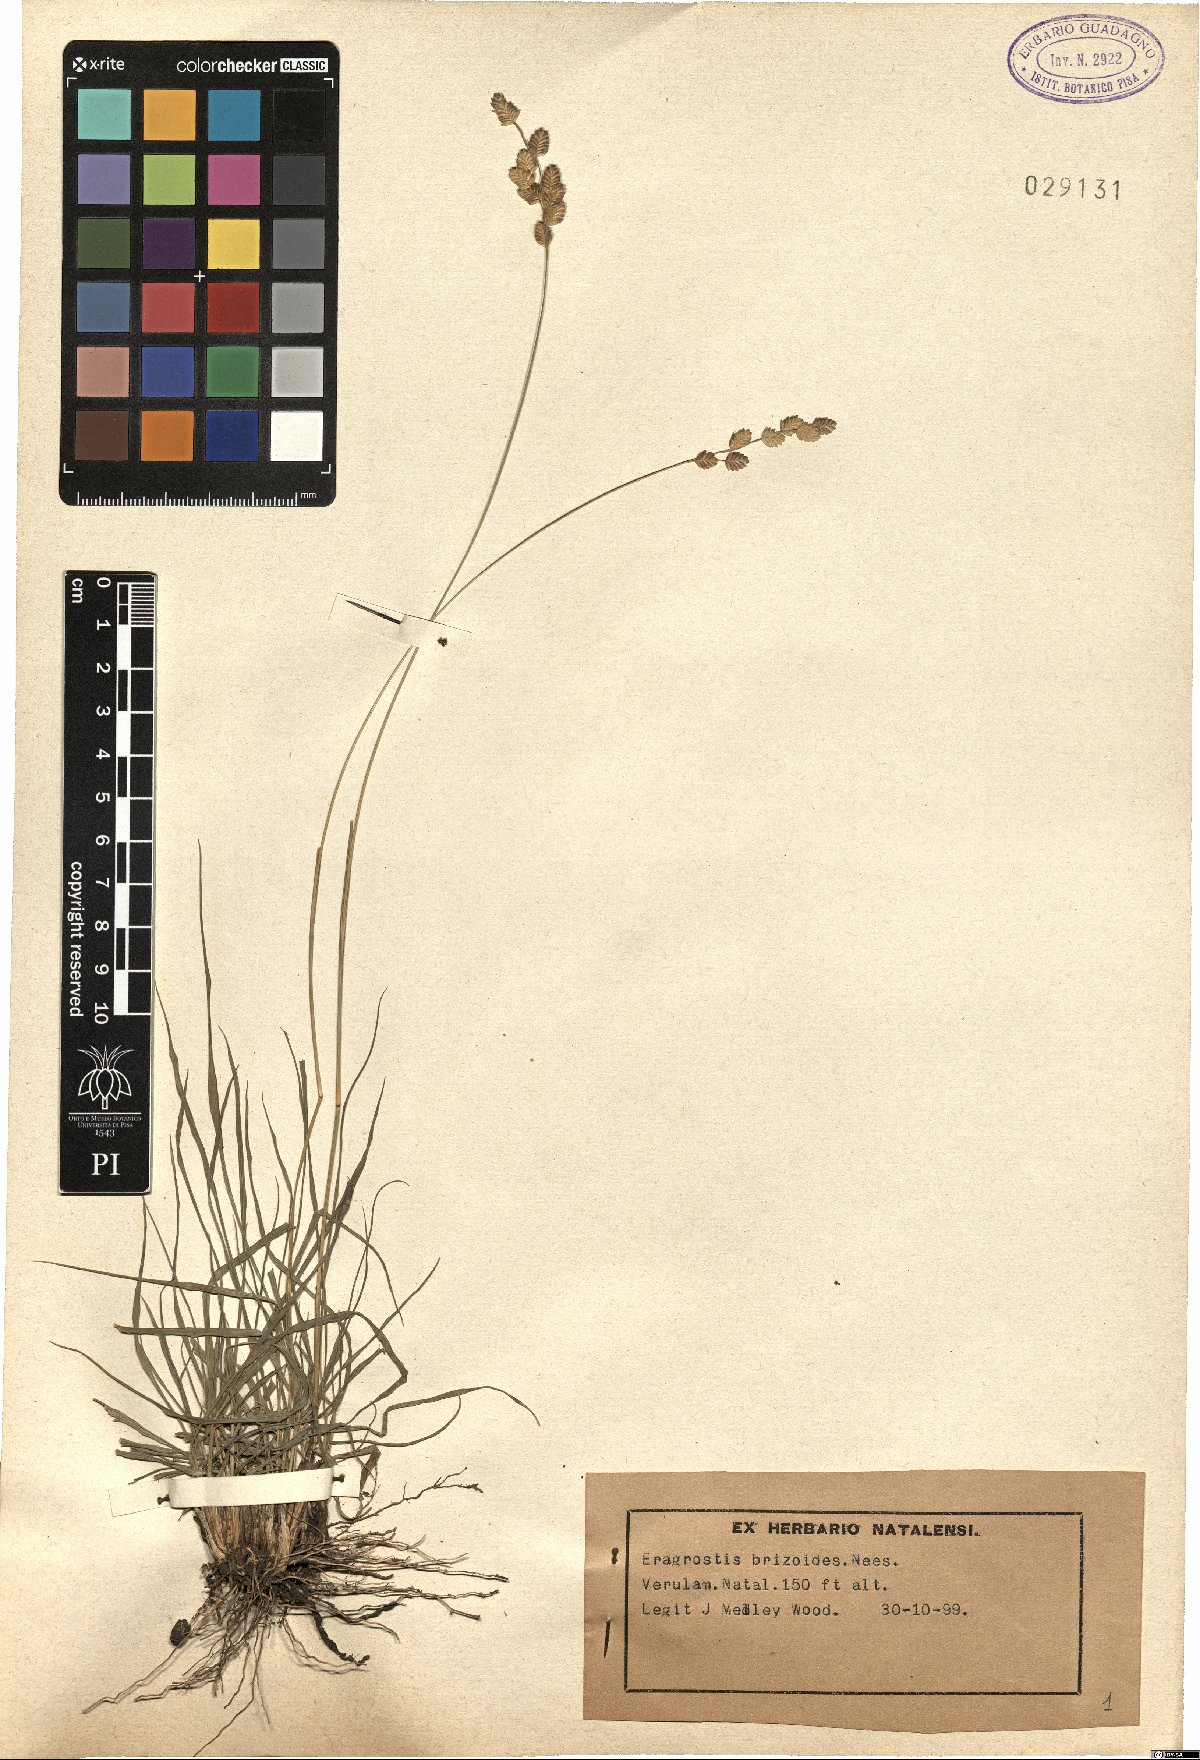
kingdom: Plantae
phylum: Tracheophyta
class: Liliopsida
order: Poales
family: Poaceae
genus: Eragrostis
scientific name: Eragrostis capensis
